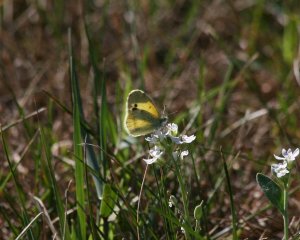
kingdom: Animalia
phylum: Arthropoda
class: Insecta
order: Lepidoptera
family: Pieridae
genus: Nathalis
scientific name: Nathalis iole
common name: Dainty Sulphur
